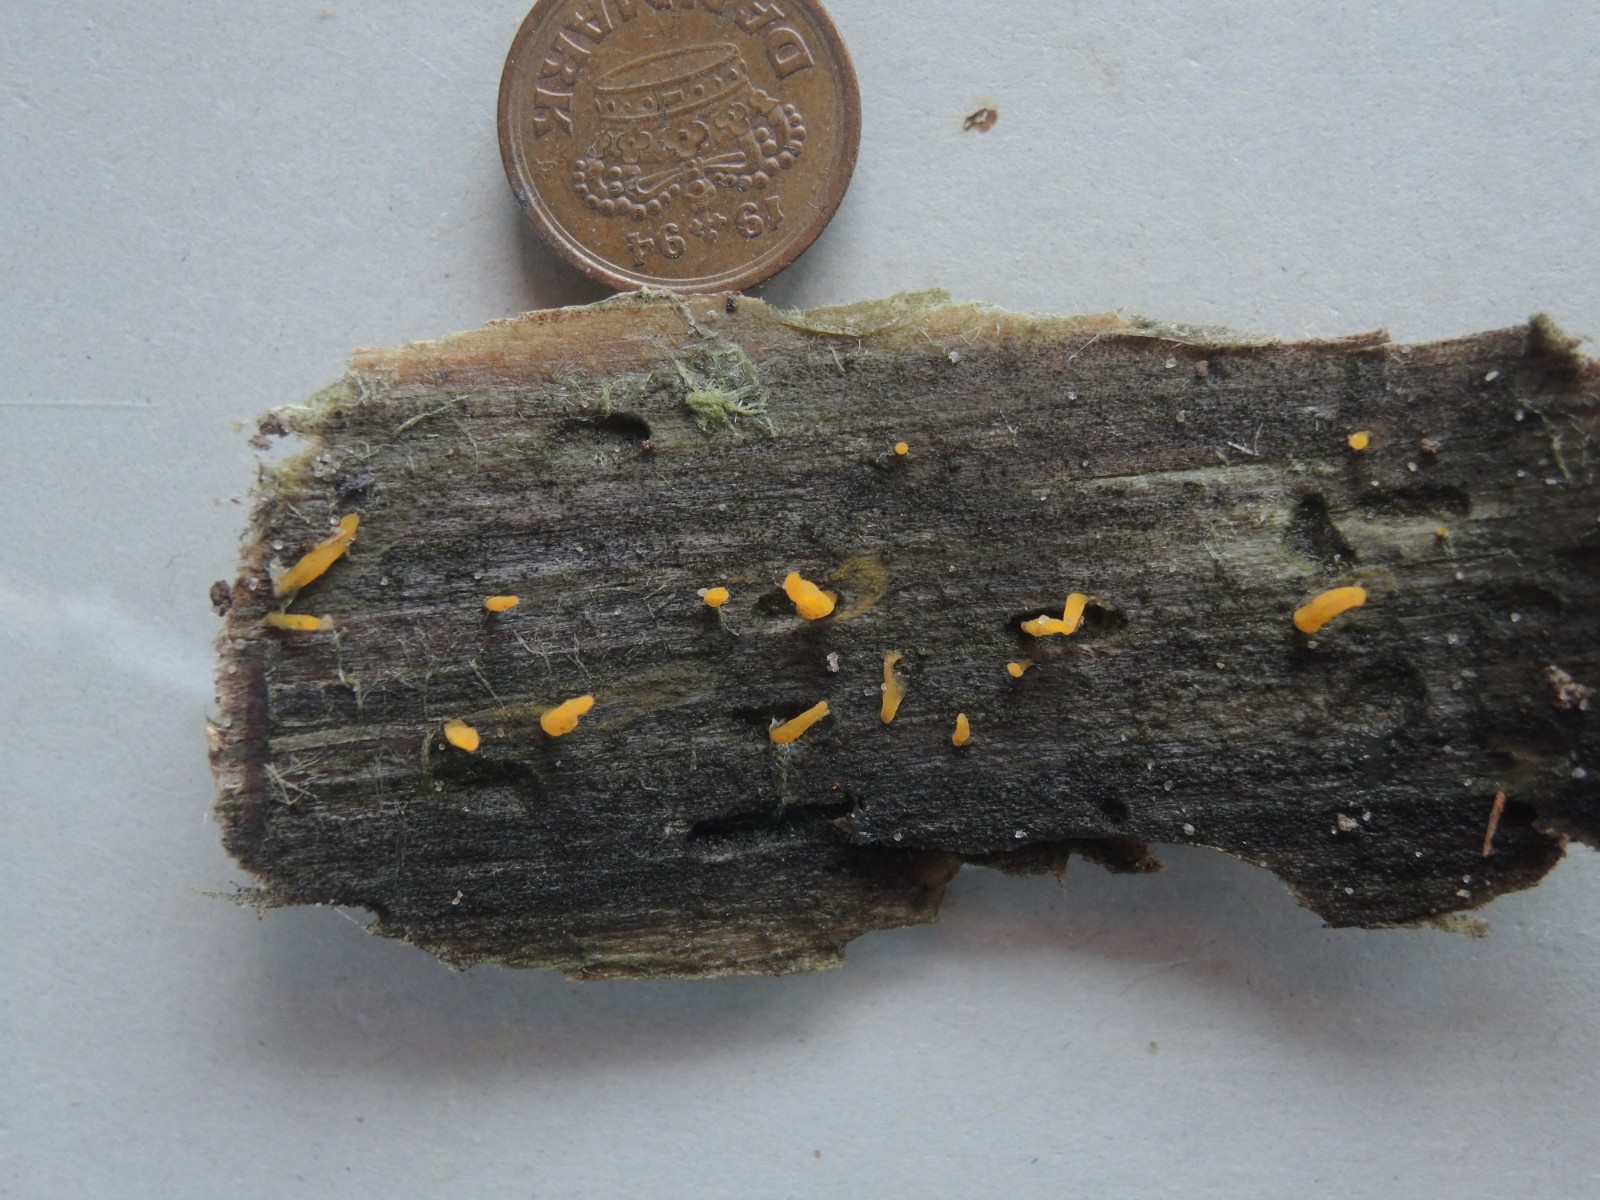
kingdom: Fungi
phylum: Basidiomycota
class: Dacrymycetes
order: Dacrymycetales
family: Dacrymycetaceae
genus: Calocera
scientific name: Calocera cornea
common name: liden guldgaffel
